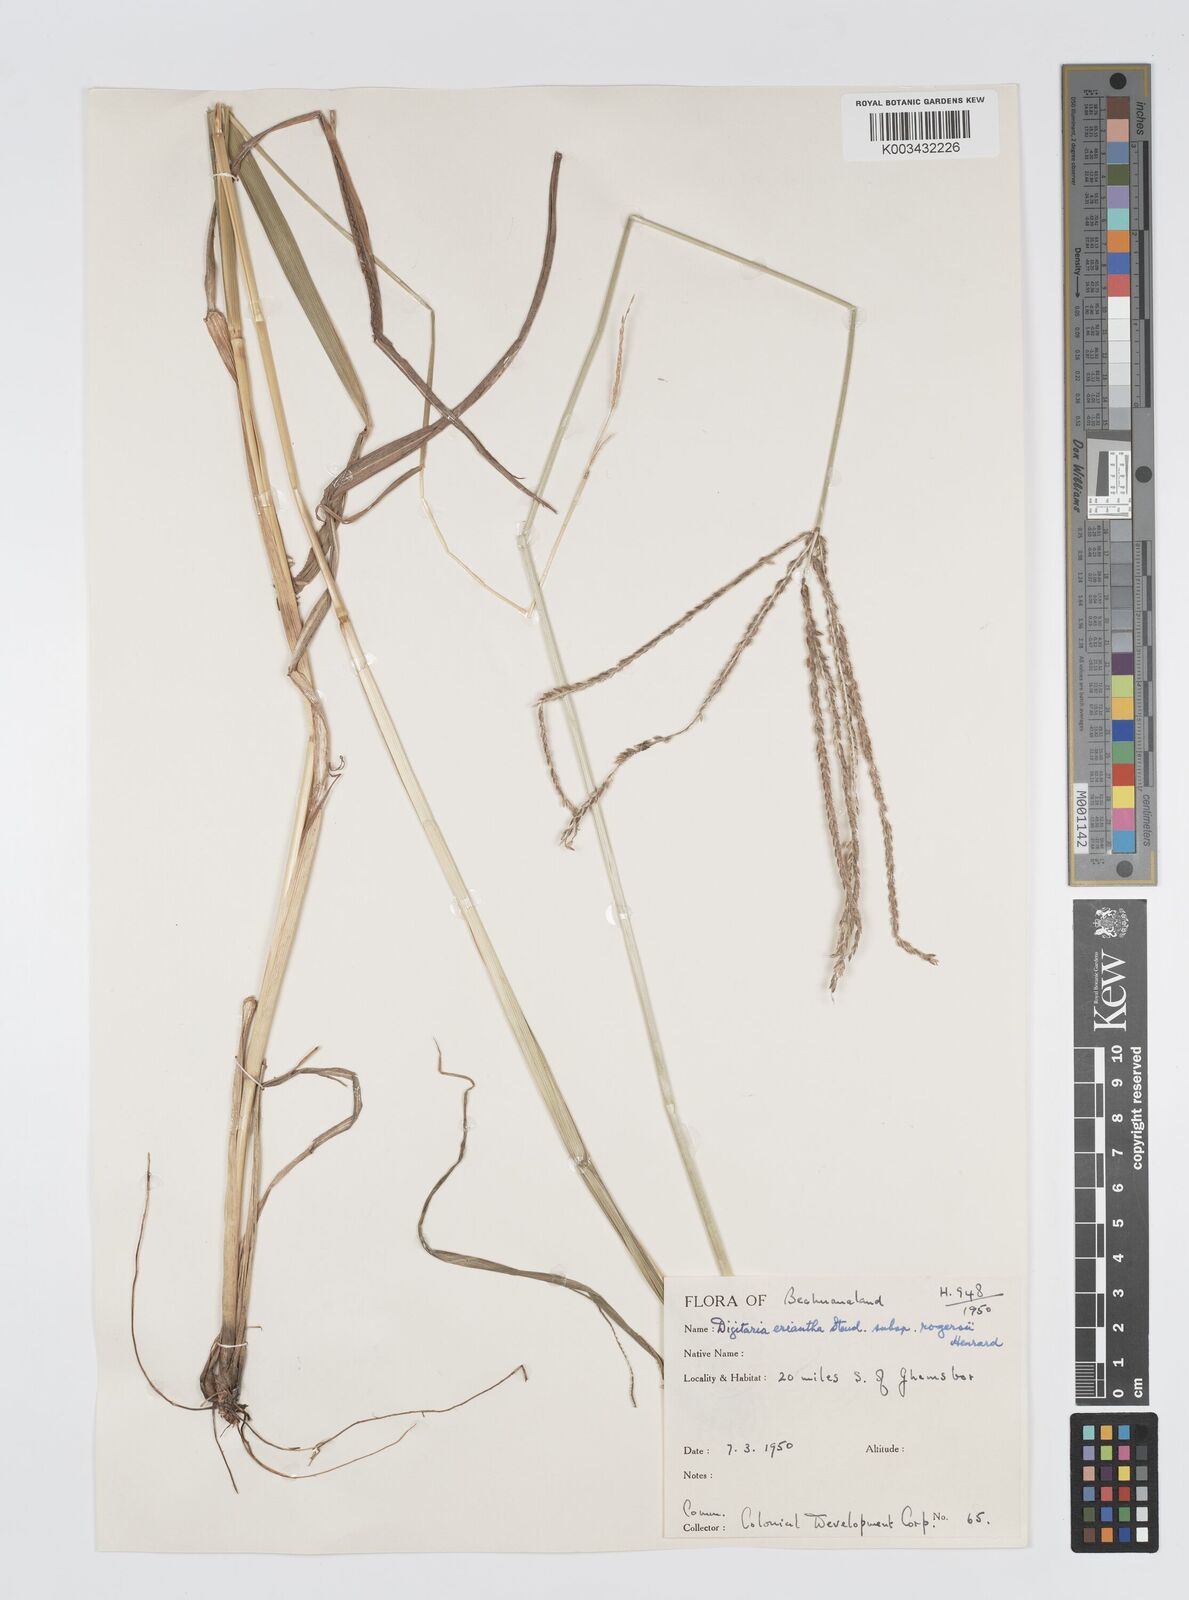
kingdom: Plantae
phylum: Tracheophyta
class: Liliopsida
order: Poales
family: Poaceae
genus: Digitaria
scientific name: Digitaria milanjiana
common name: Madagascar crabgrass
